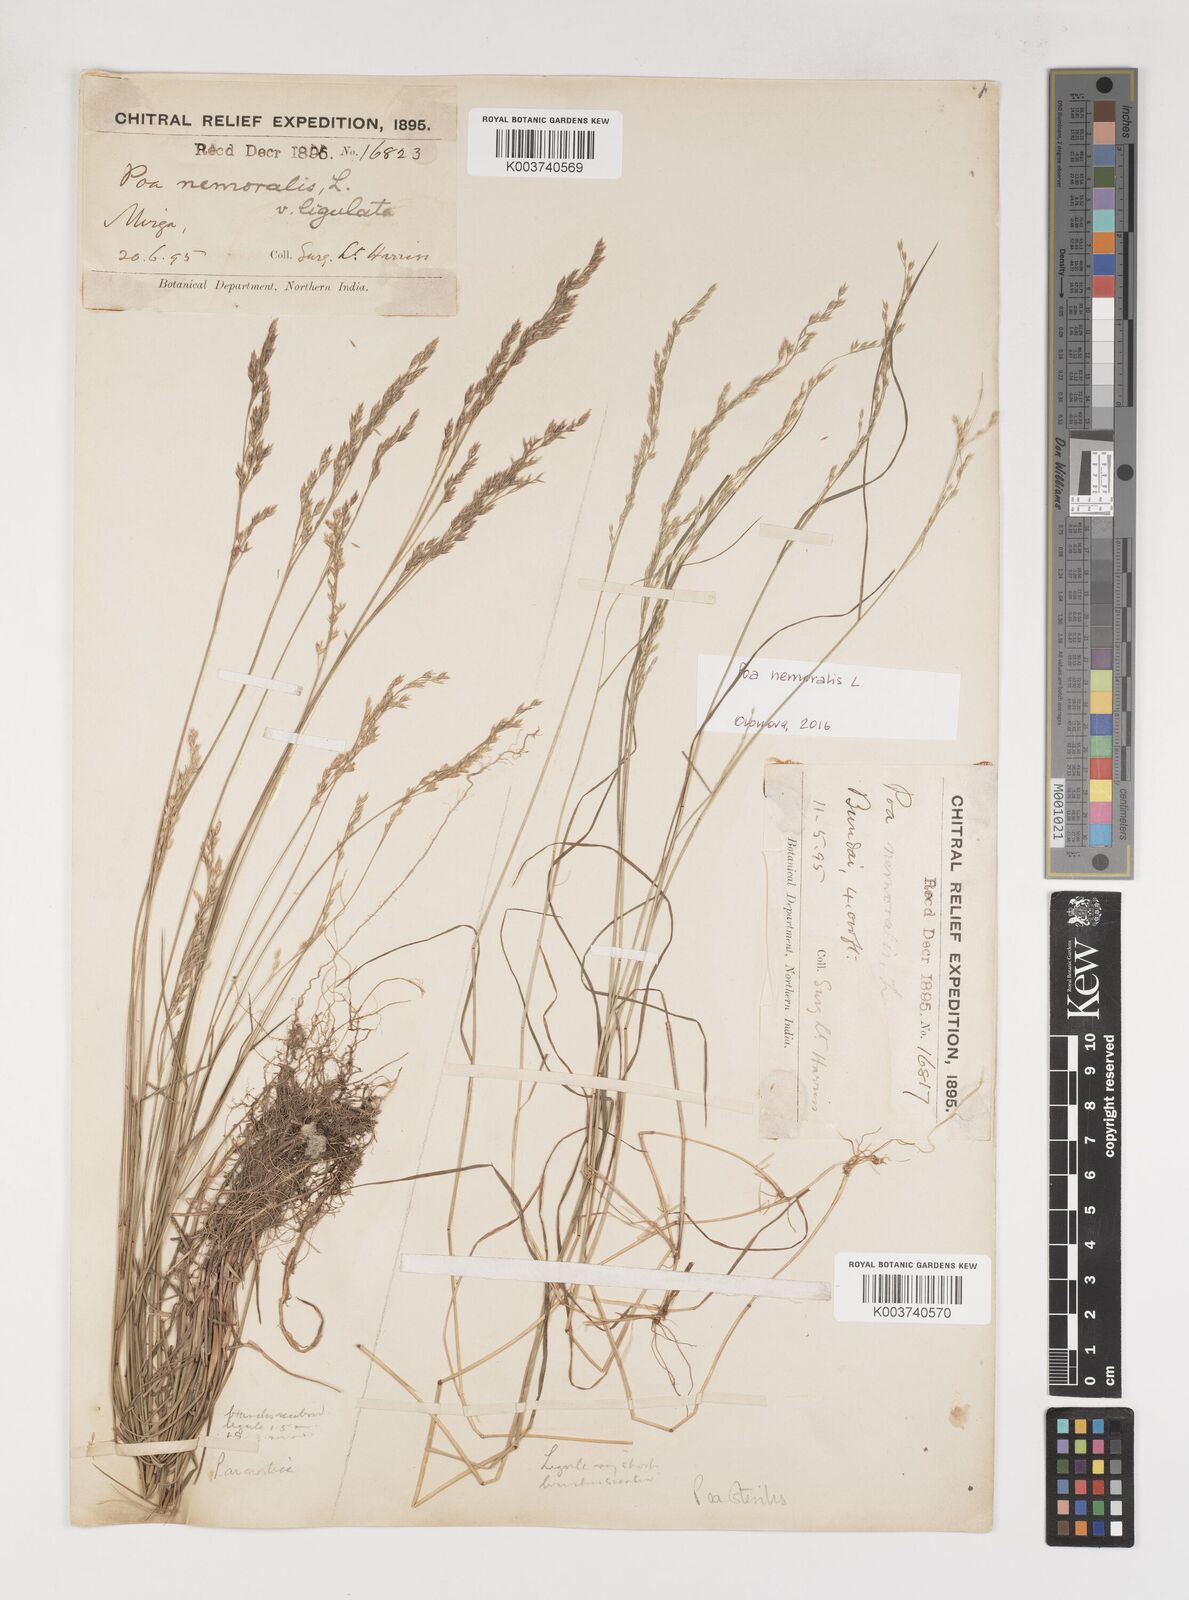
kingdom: Plantae
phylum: Tracheophyta
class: Liliopsida
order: Poales
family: Poaceae
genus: Poa
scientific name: Poa sterilis
